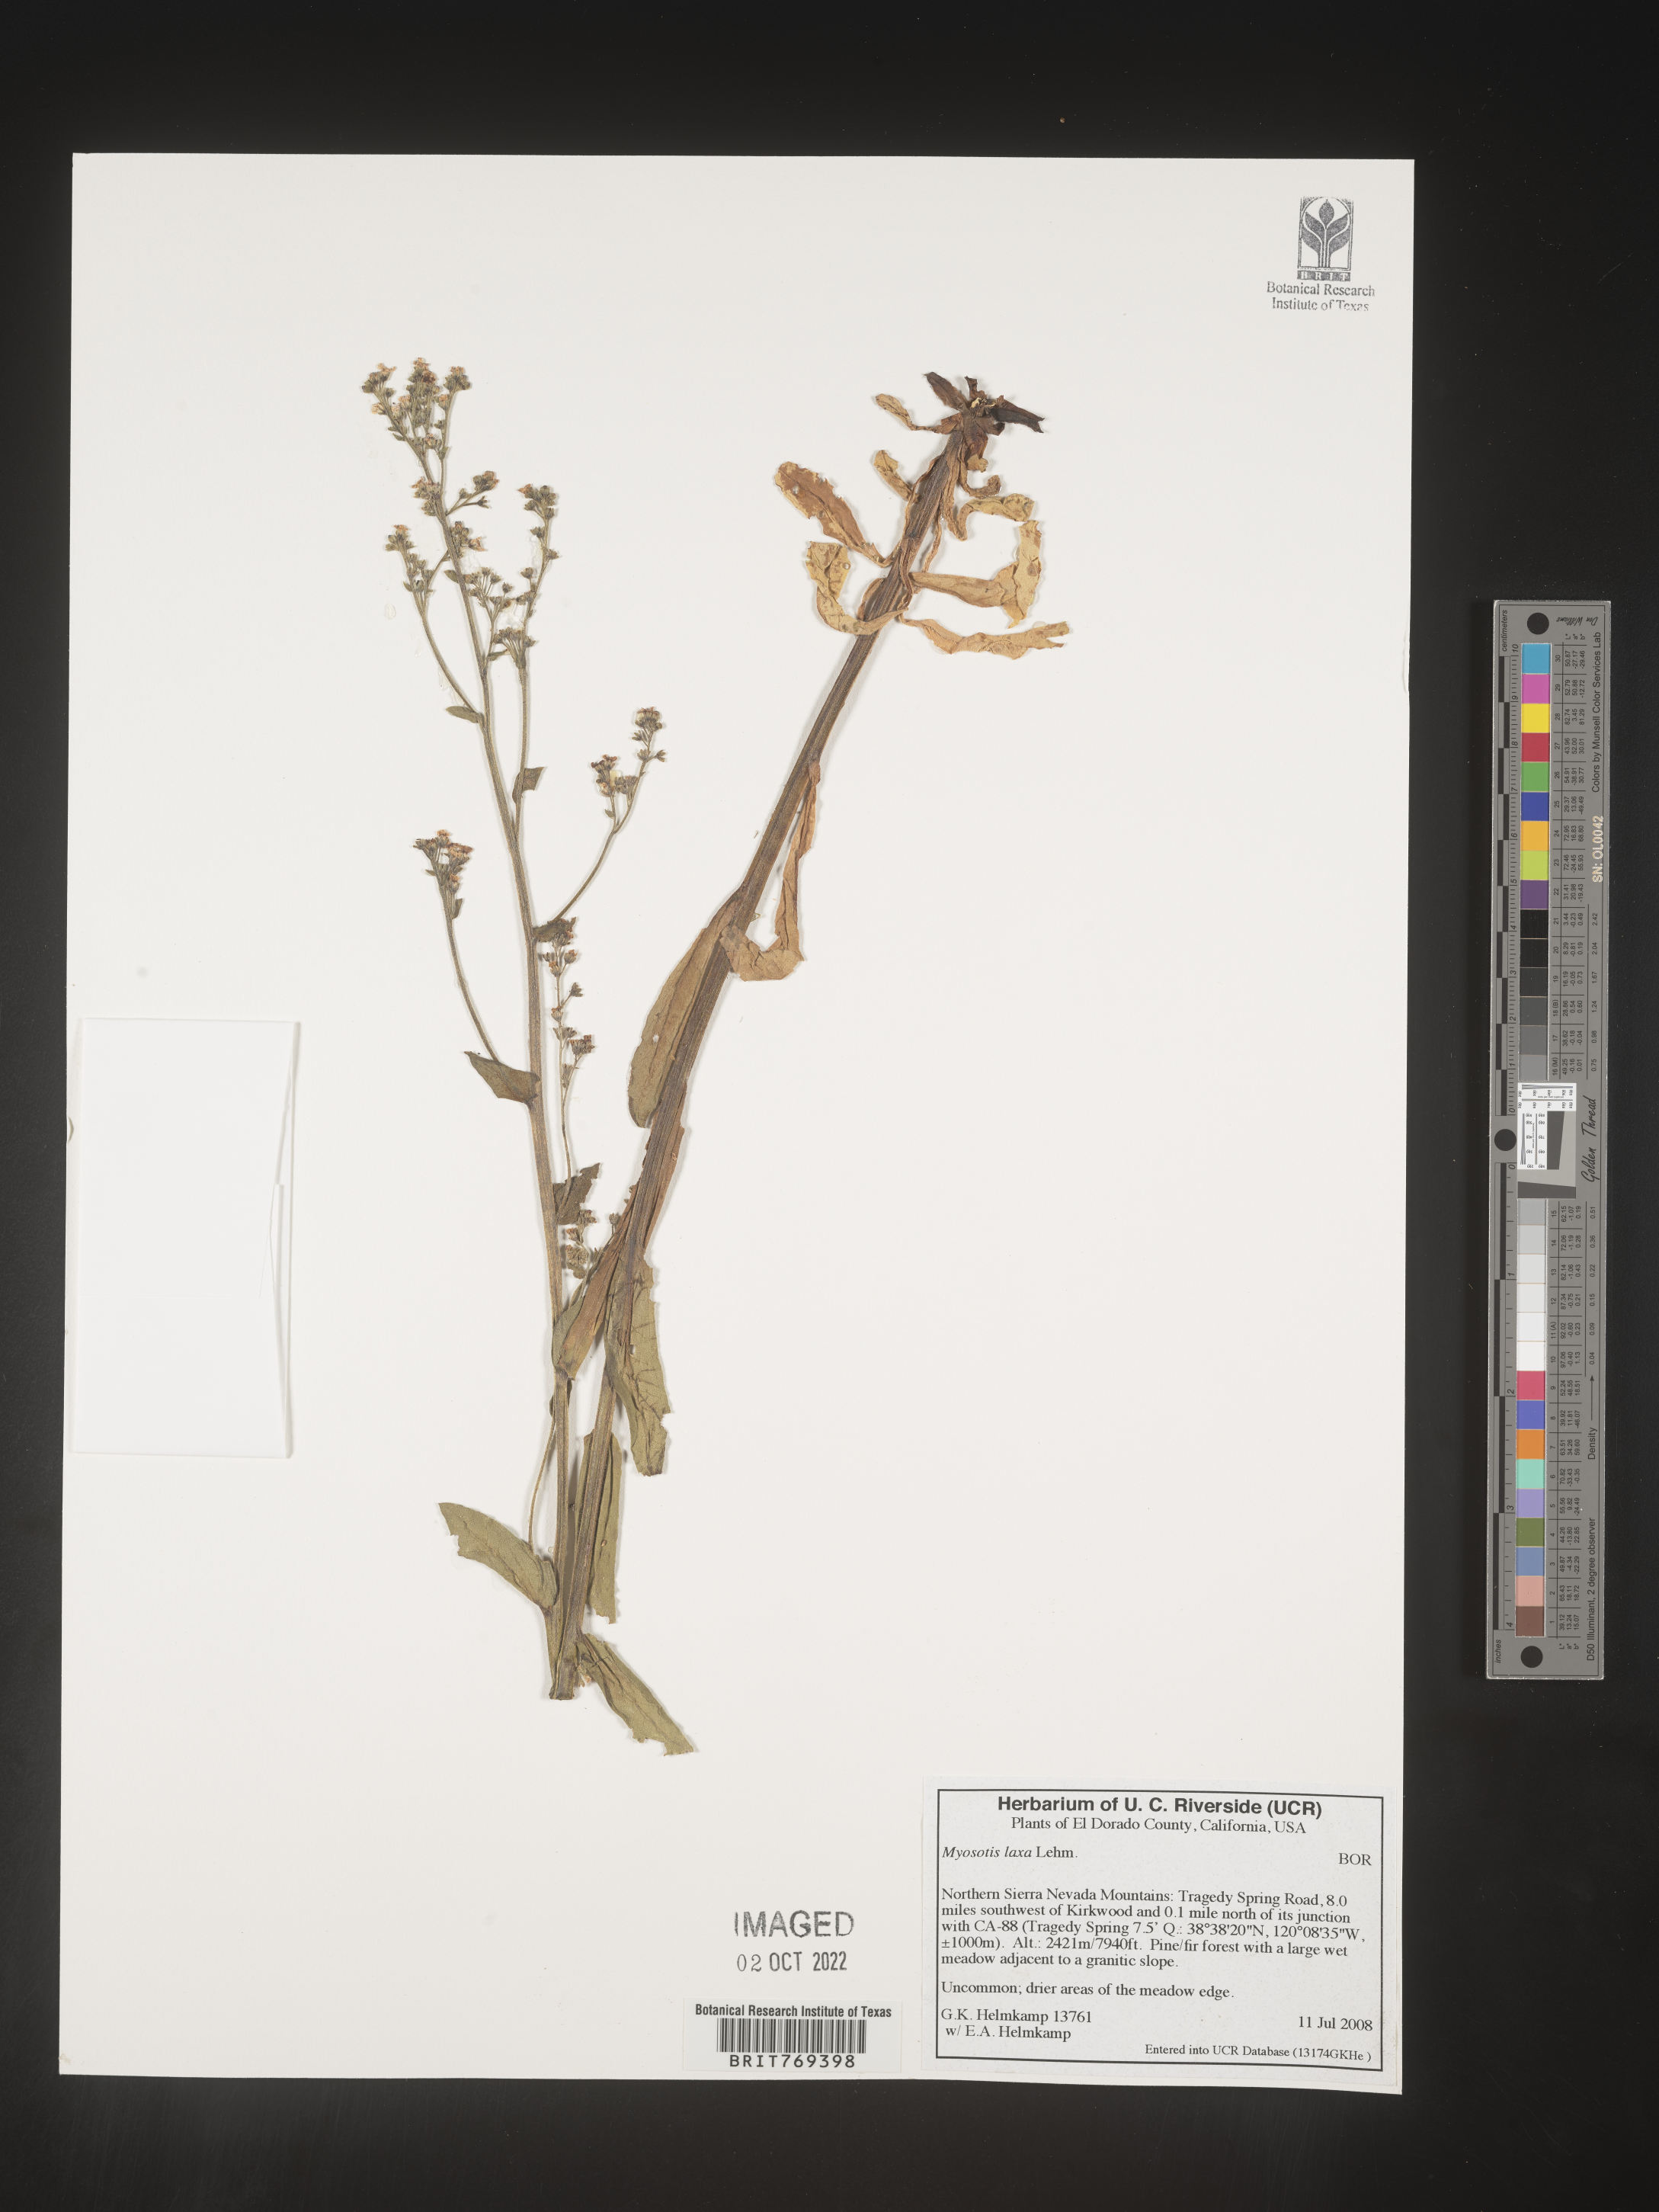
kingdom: Plantae
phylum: Tracheophyta
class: Magnoliopsida
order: Boraginales
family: Boraginaceae
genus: Myosotis
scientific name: Myosotis
